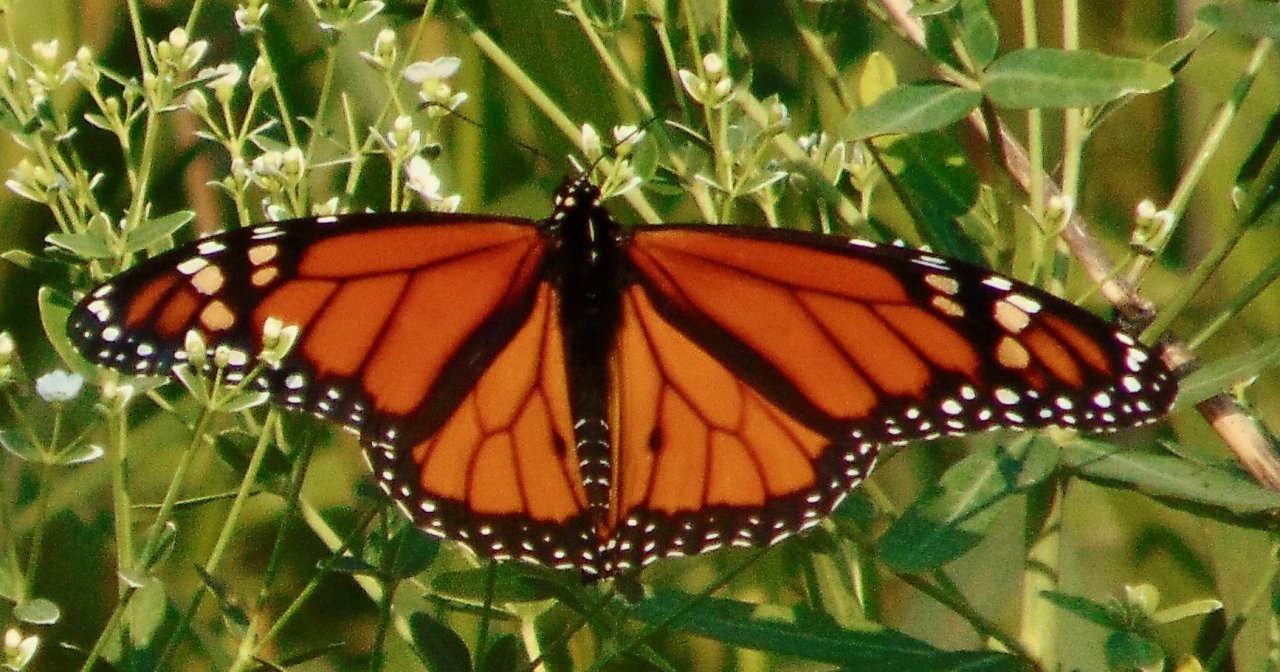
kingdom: Animalia
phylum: Arthropoda
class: Insecta
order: Lepidoptera
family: Nymphalidae
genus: Danaus
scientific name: Danaus plexippus
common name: Monarch
